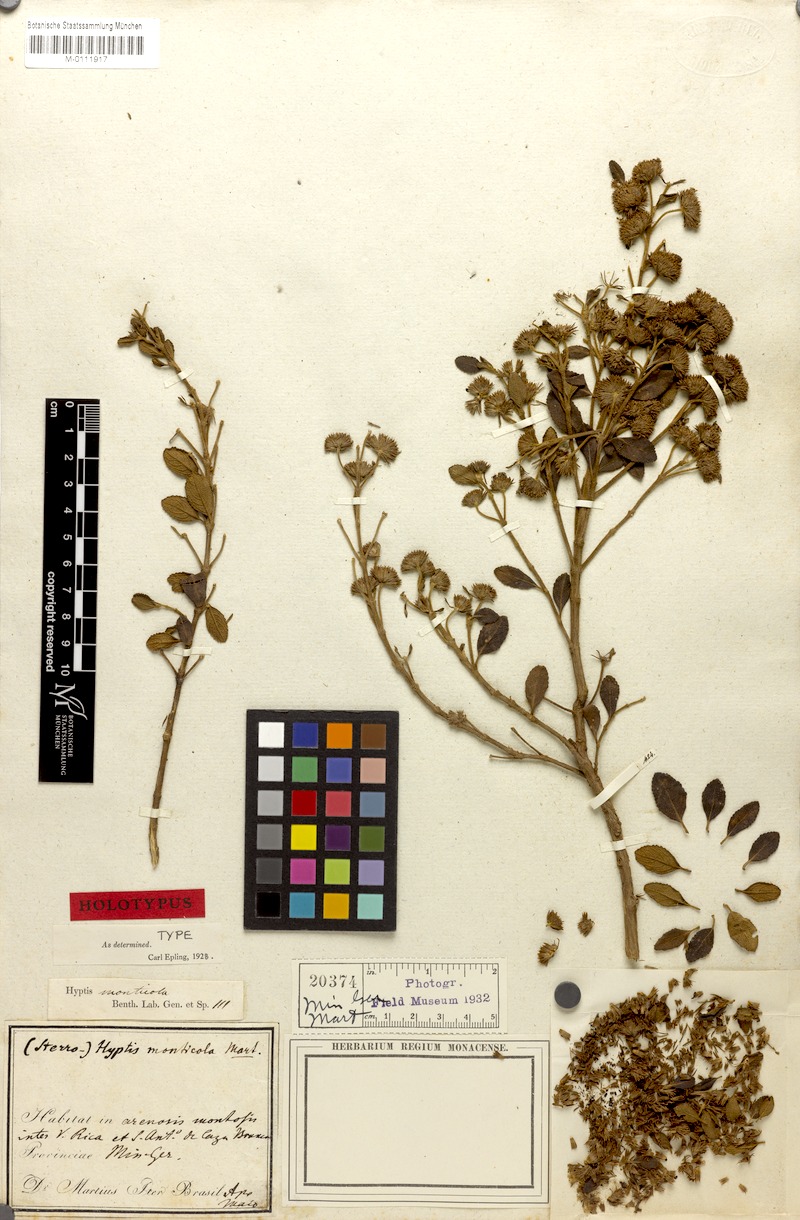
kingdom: Plantae
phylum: Tracheophyta
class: Magnoliopsida
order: Lamiales
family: Lamiaceae
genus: Hyptis
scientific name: Hyptis monticola
